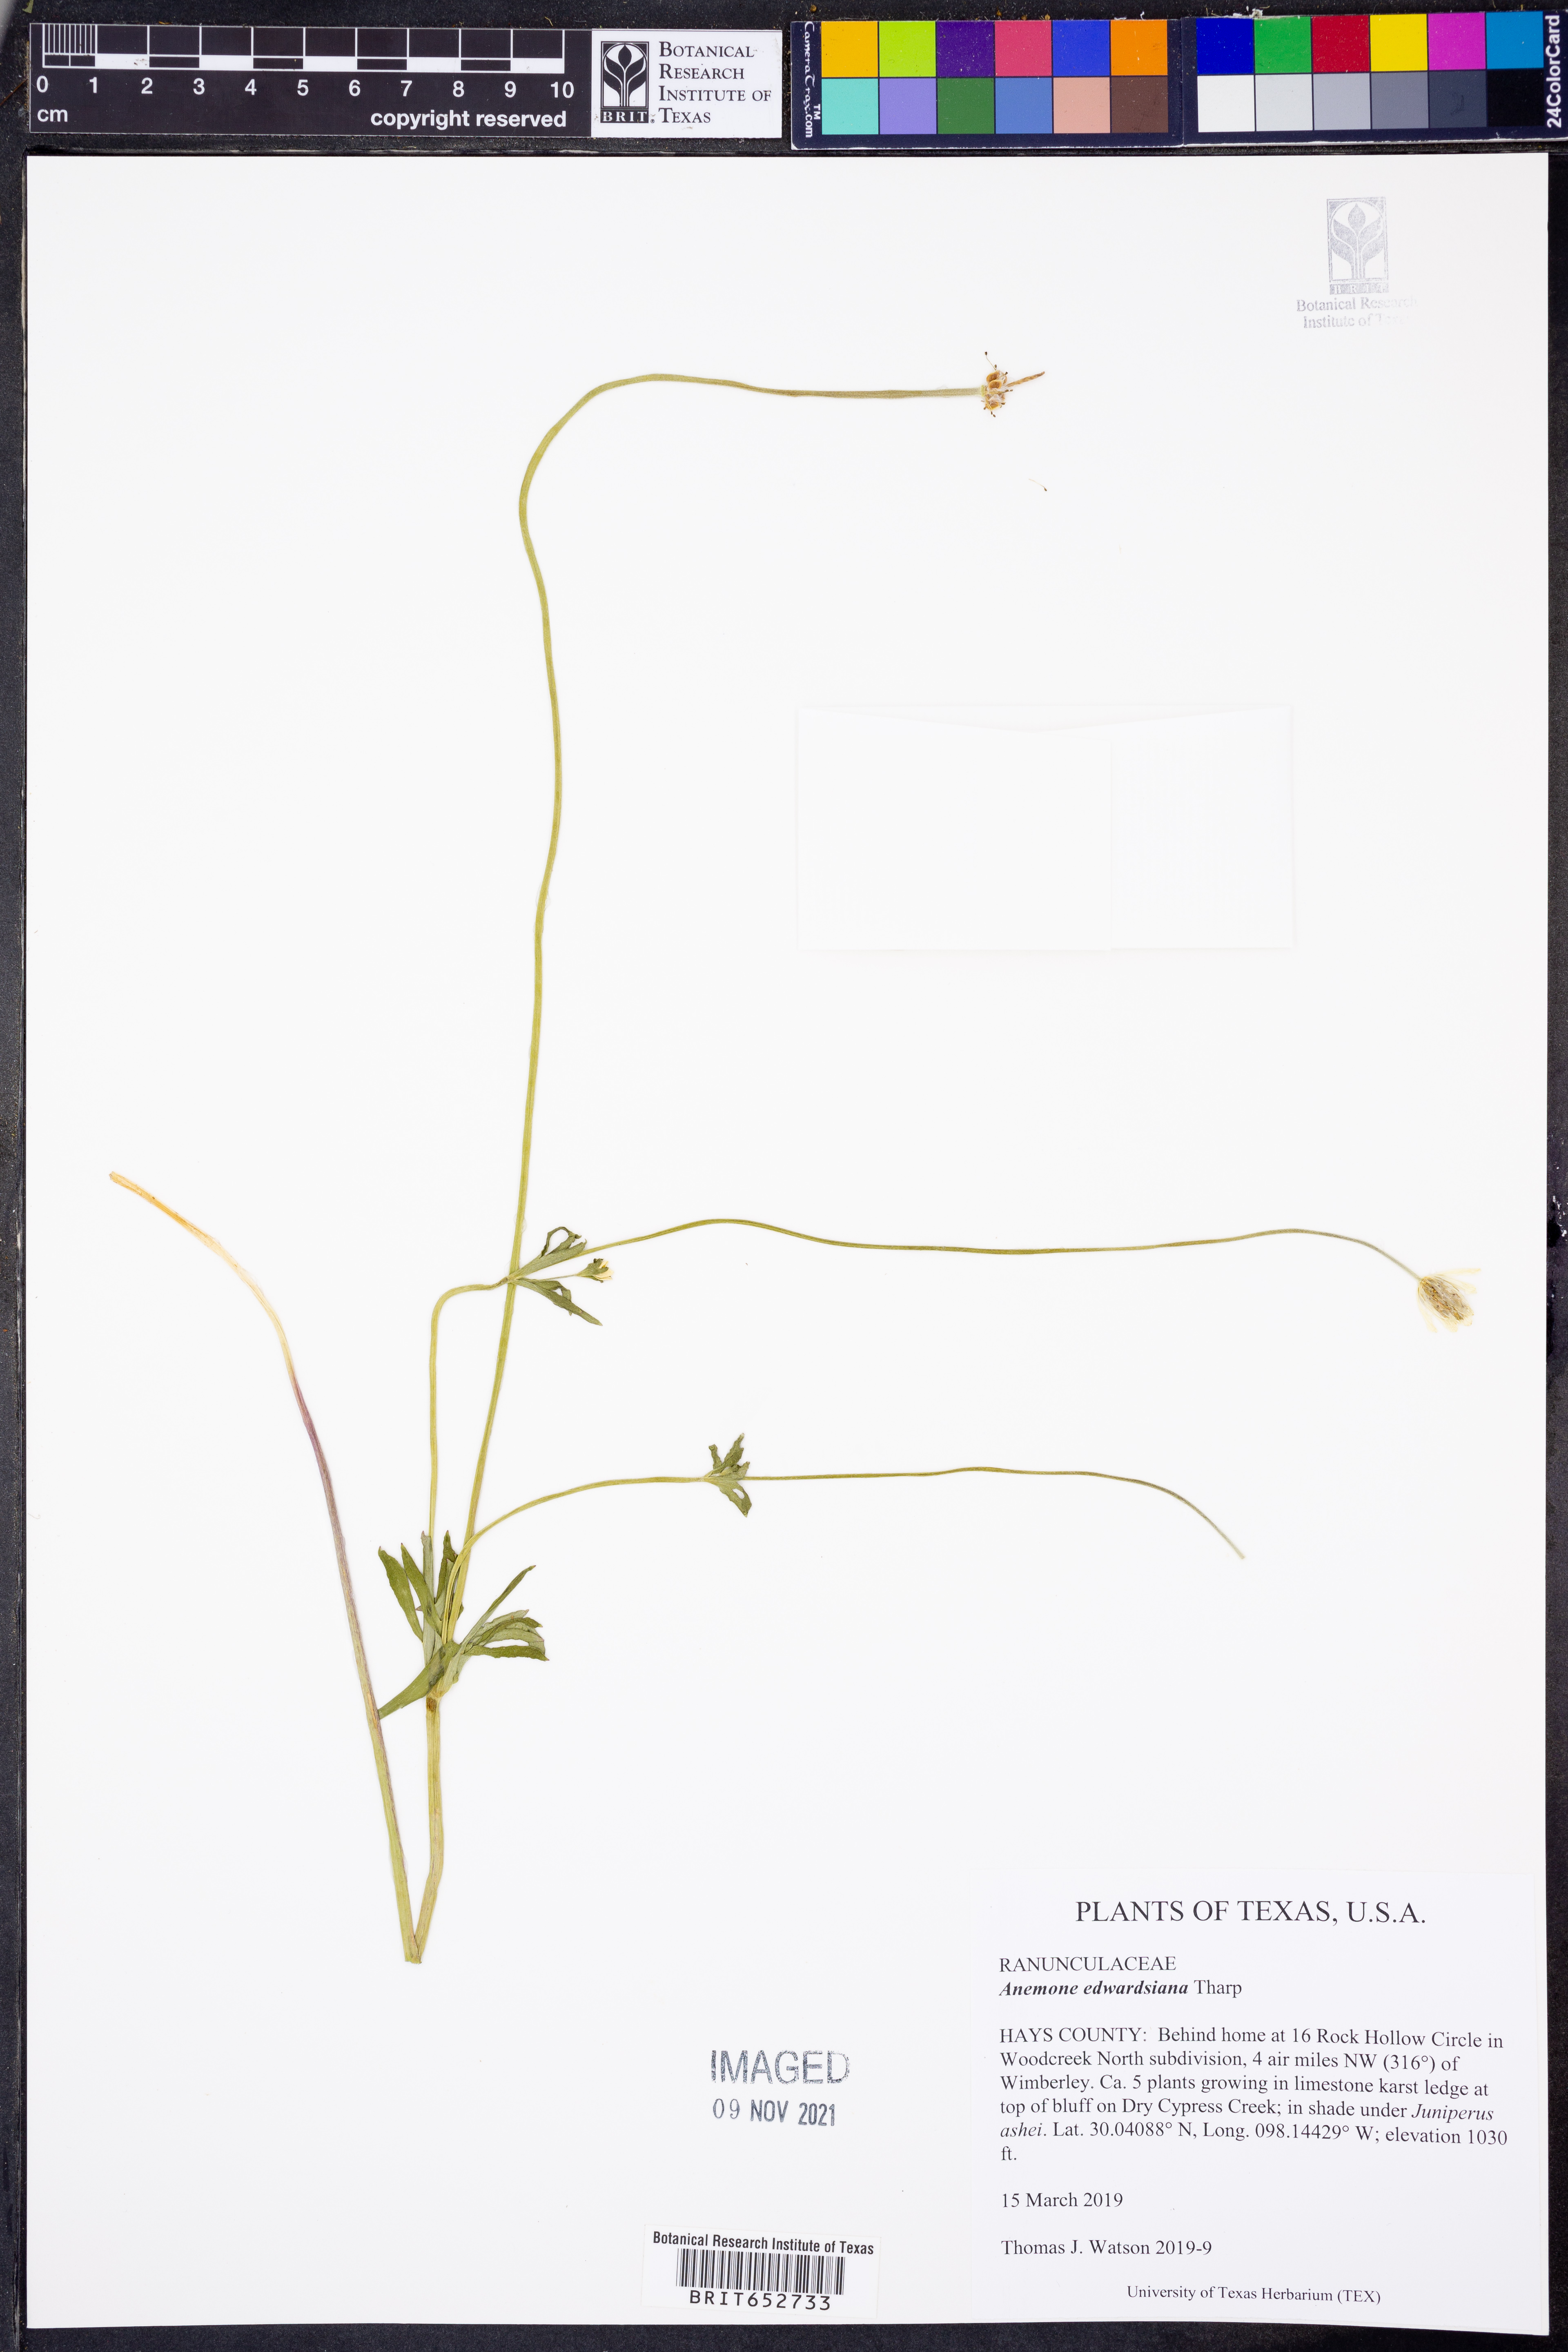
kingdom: Plantae
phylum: Tracheophyta
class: Magnoliopsida
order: Ranunculales
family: Ranunculaceae
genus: Anemone
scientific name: Anemone edwardsiana
